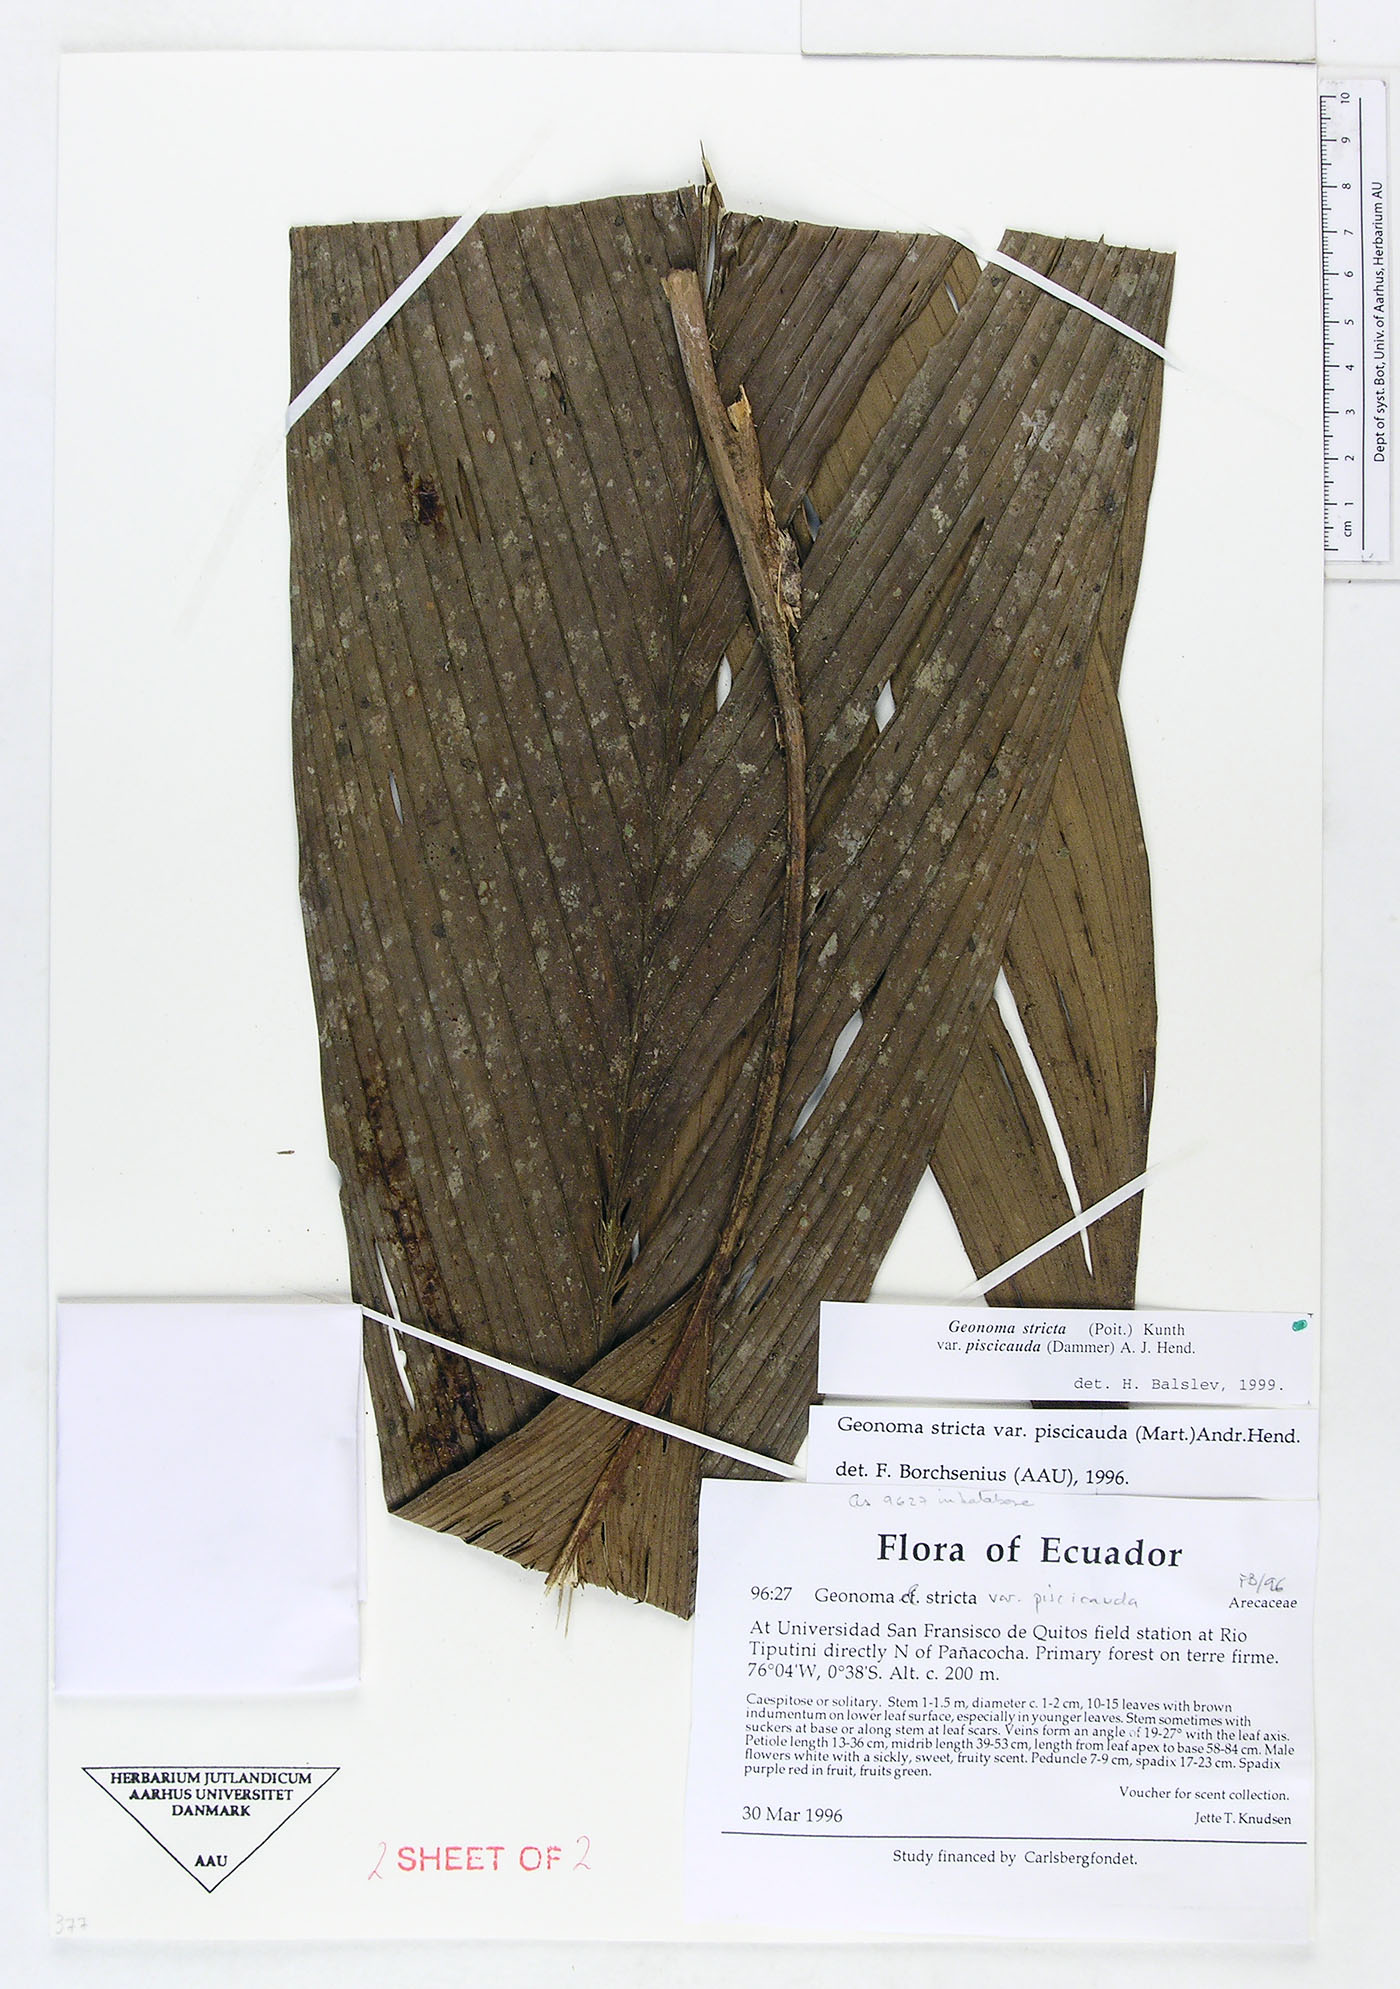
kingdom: Plantae
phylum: Tracheophyta
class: Liliopsida
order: Arecales
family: Arecaceae
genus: Geonoma
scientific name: Geonoma stricta
